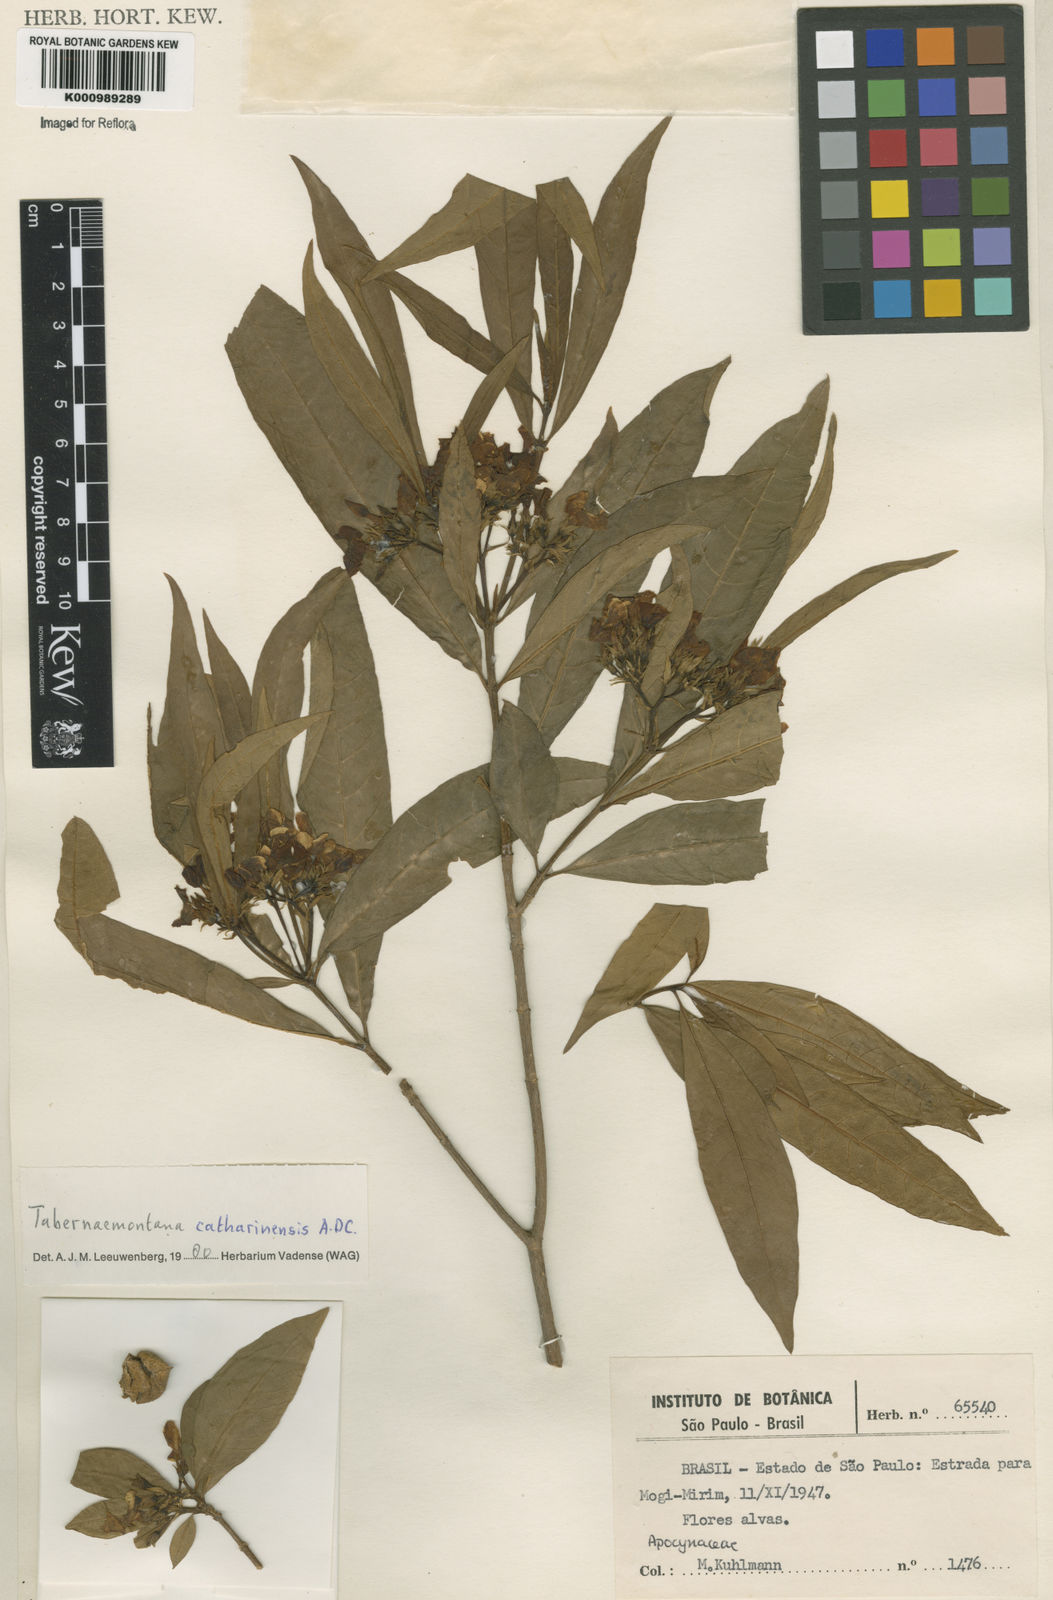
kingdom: Plantae
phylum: Tracheophyta
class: Magnoliopsida
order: Gentianales
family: Apocynaceae
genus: Tabernaemontana
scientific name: Tabernaemontana catharinensis
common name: Pinwheel-flower
